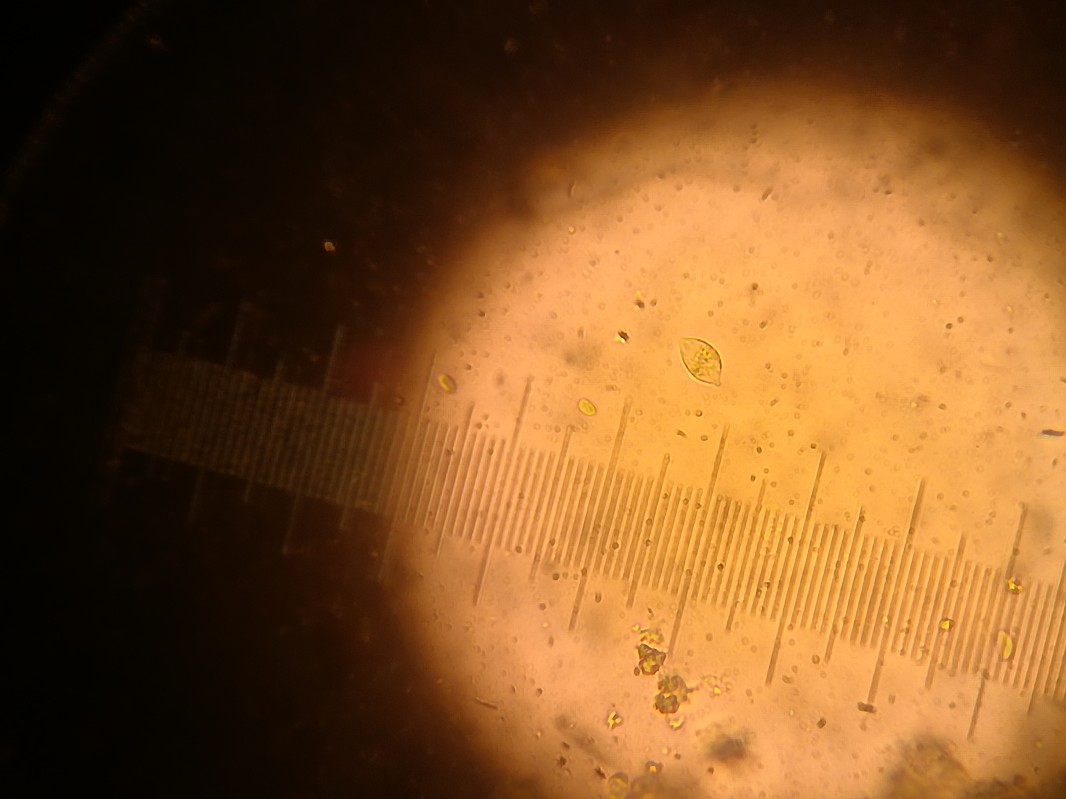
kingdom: Fungi
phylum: Basidiomycota
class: Agaricomycetes
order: Agaricales
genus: Dendrothele
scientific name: Dendrothele citrisporella
